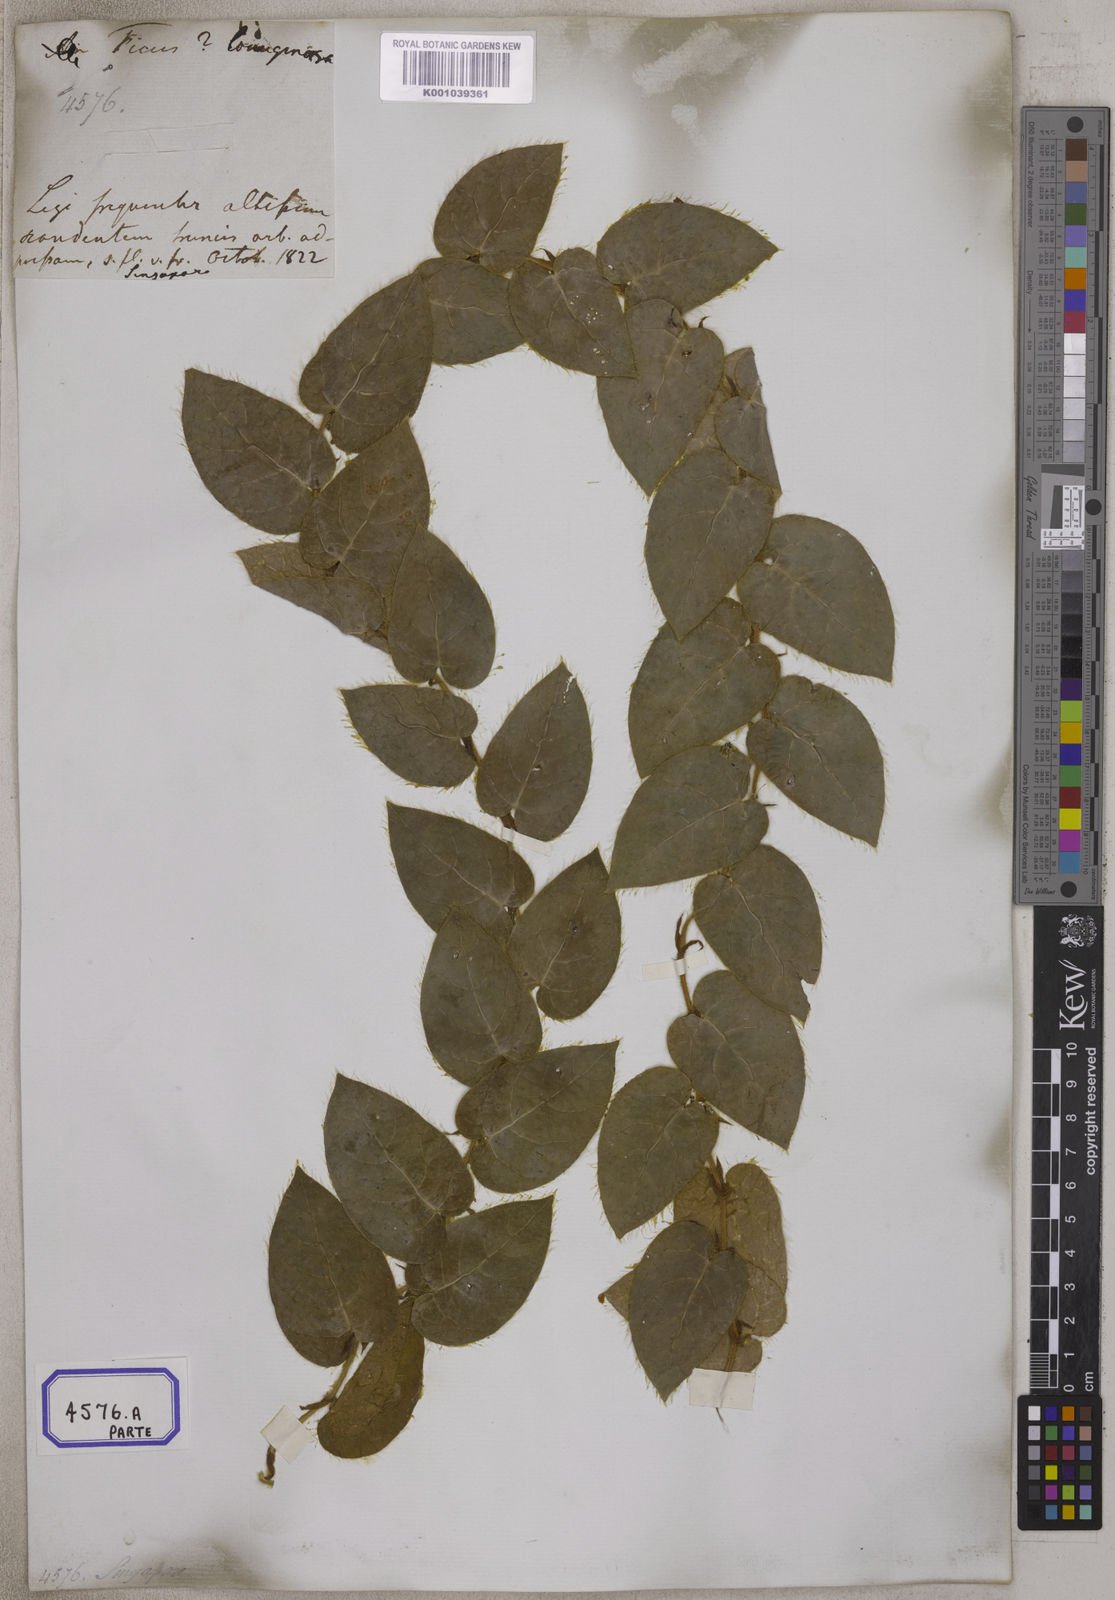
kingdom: Plantae
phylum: Tracheophyta
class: Magnoliopsida
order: Rosales
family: Moraceae
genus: Ficus
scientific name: Ficus
